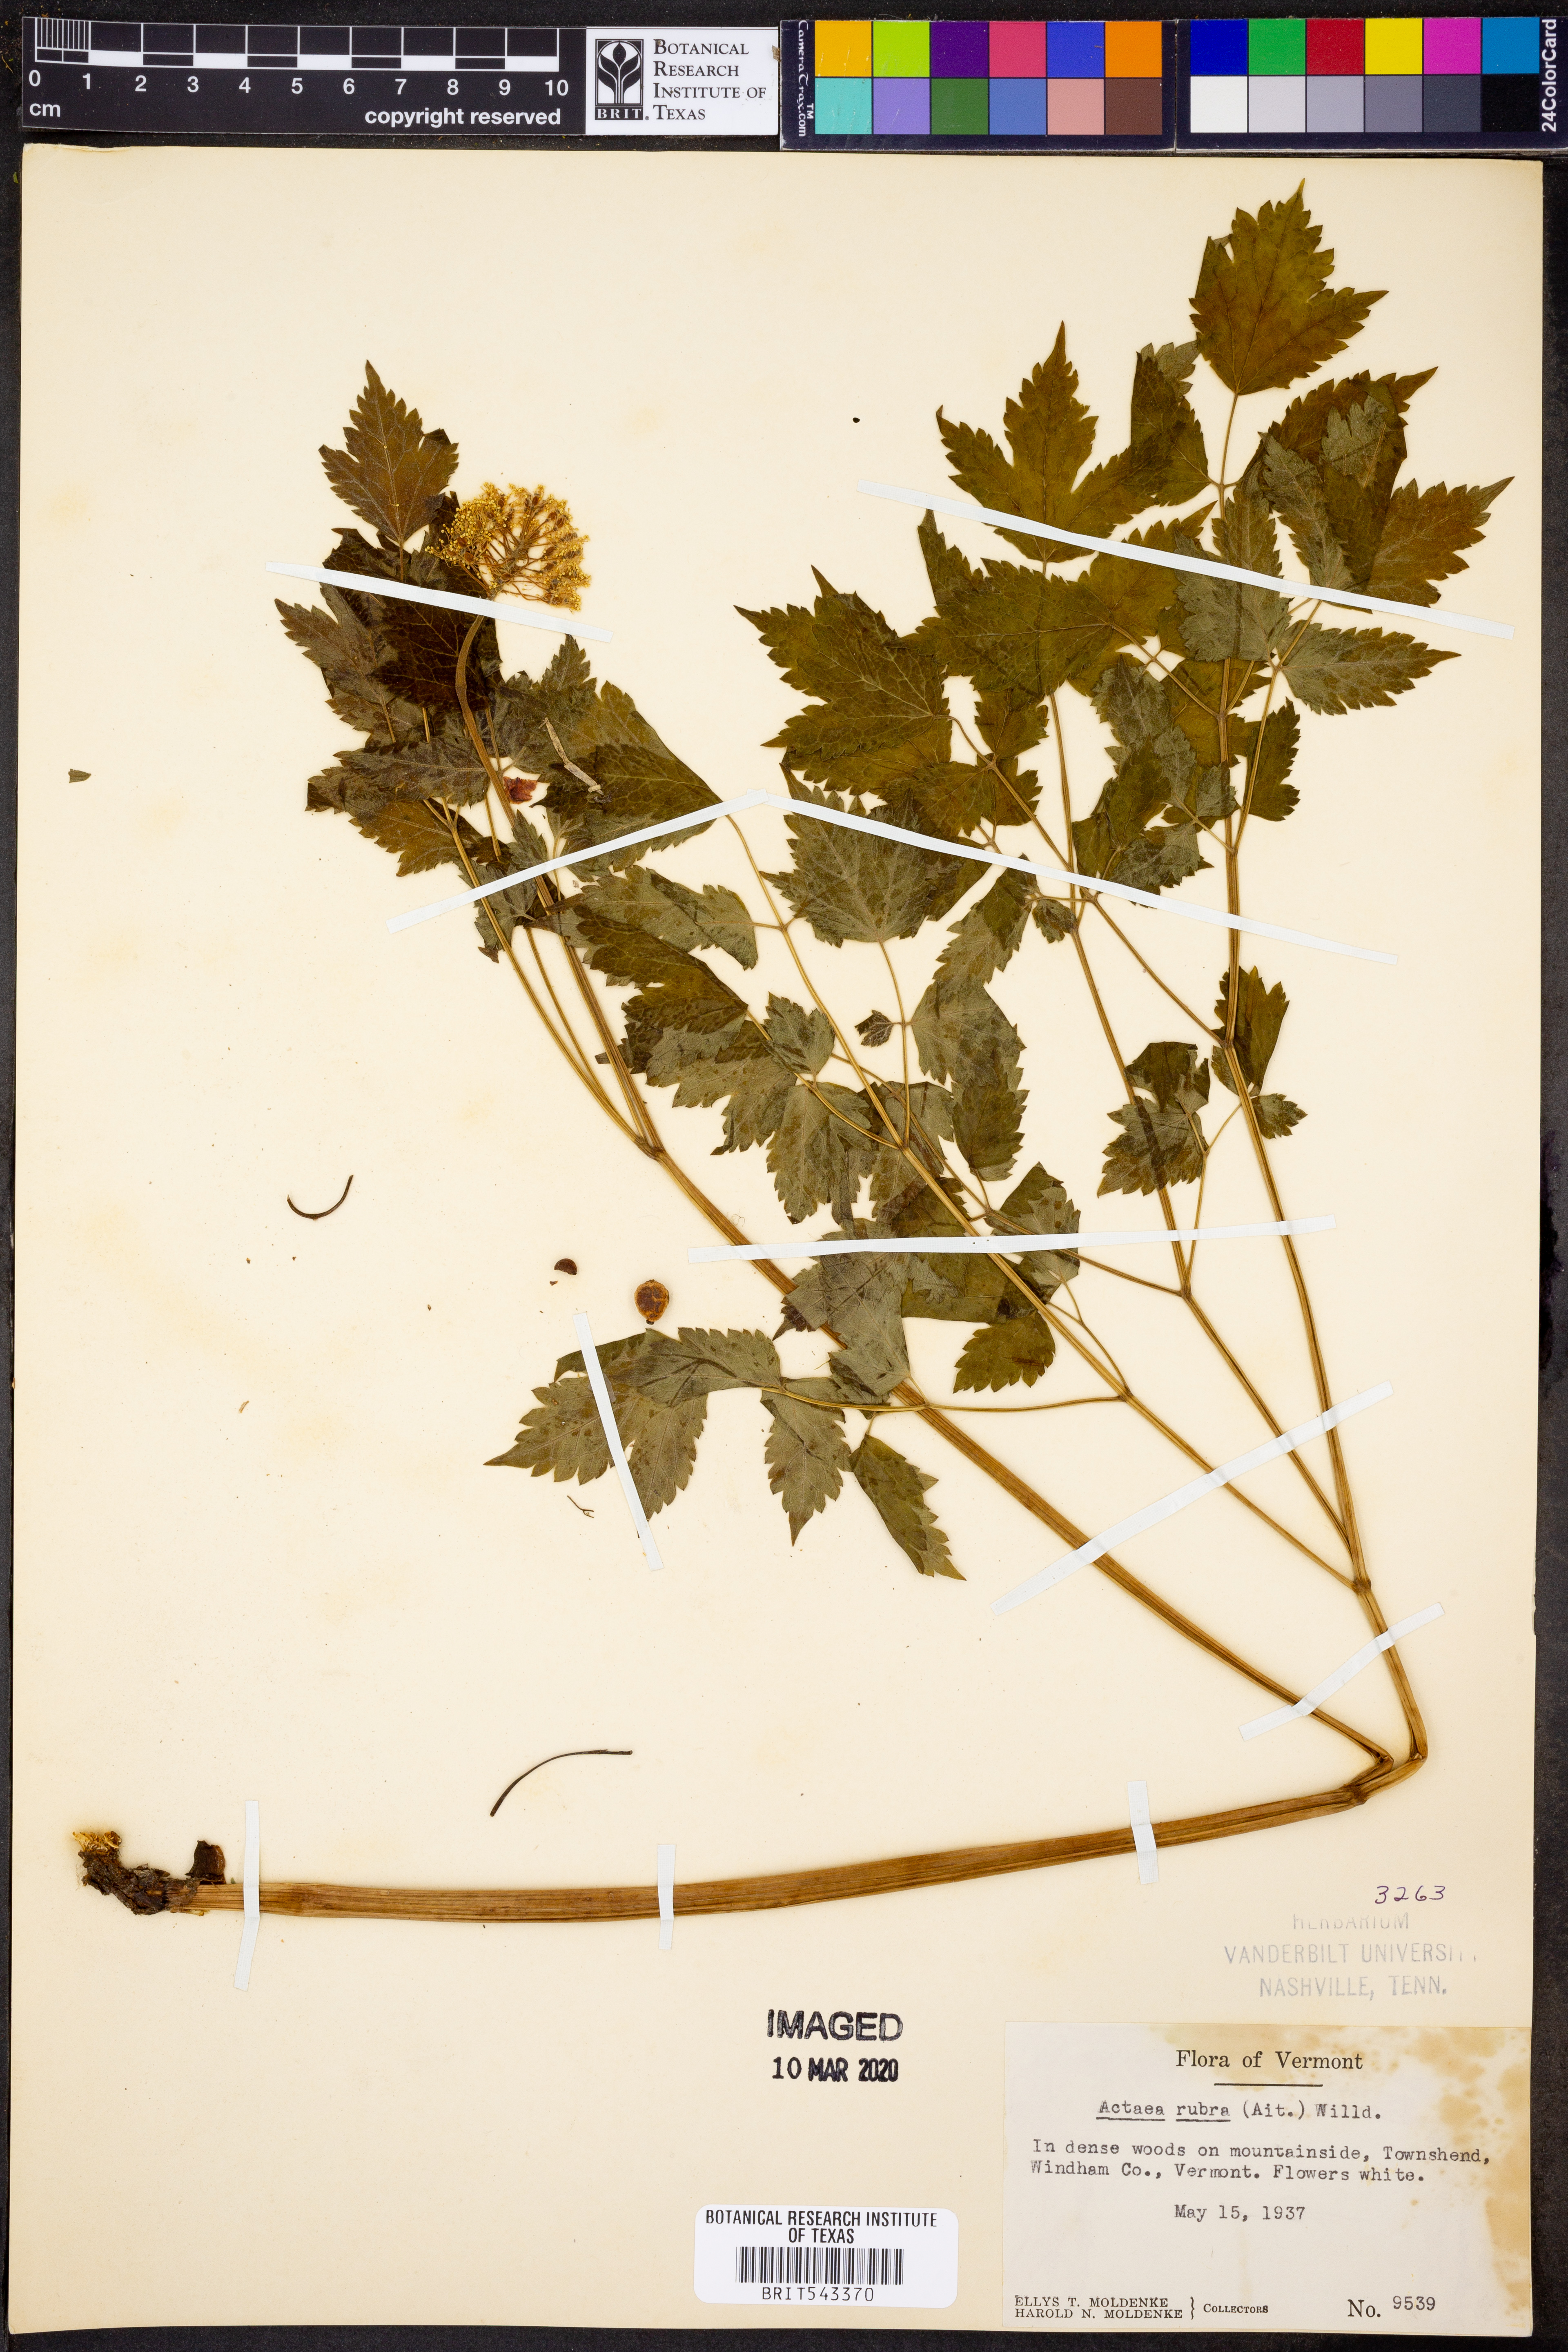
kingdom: Plantae
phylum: Tracheophyta
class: Magnoliopsida
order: Ranunculales
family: Ranunculaceae
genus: Actaea
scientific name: Actaea rubra
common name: Red baneberry
